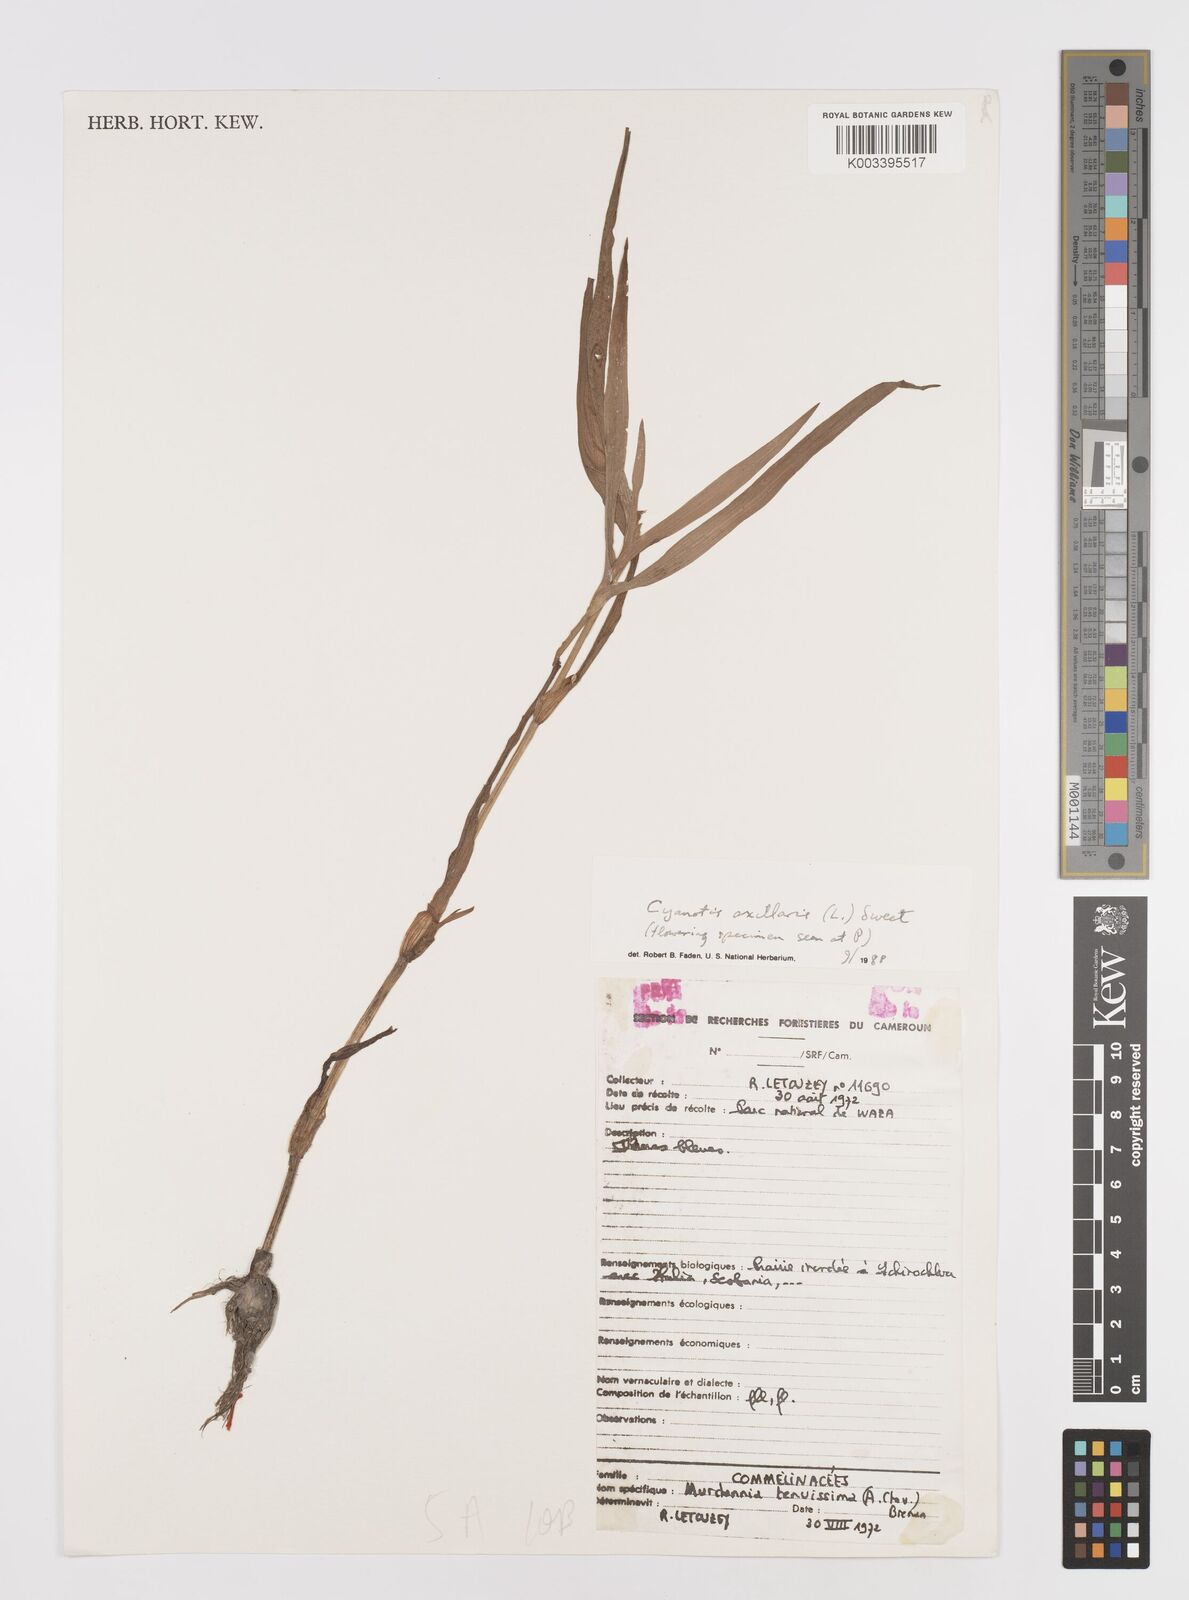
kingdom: Plantae
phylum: Tracheophyta
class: Liliopsida
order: Commelinales
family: Commelinaceae
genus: Cyanotis
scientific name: Cyanotis axillaris
